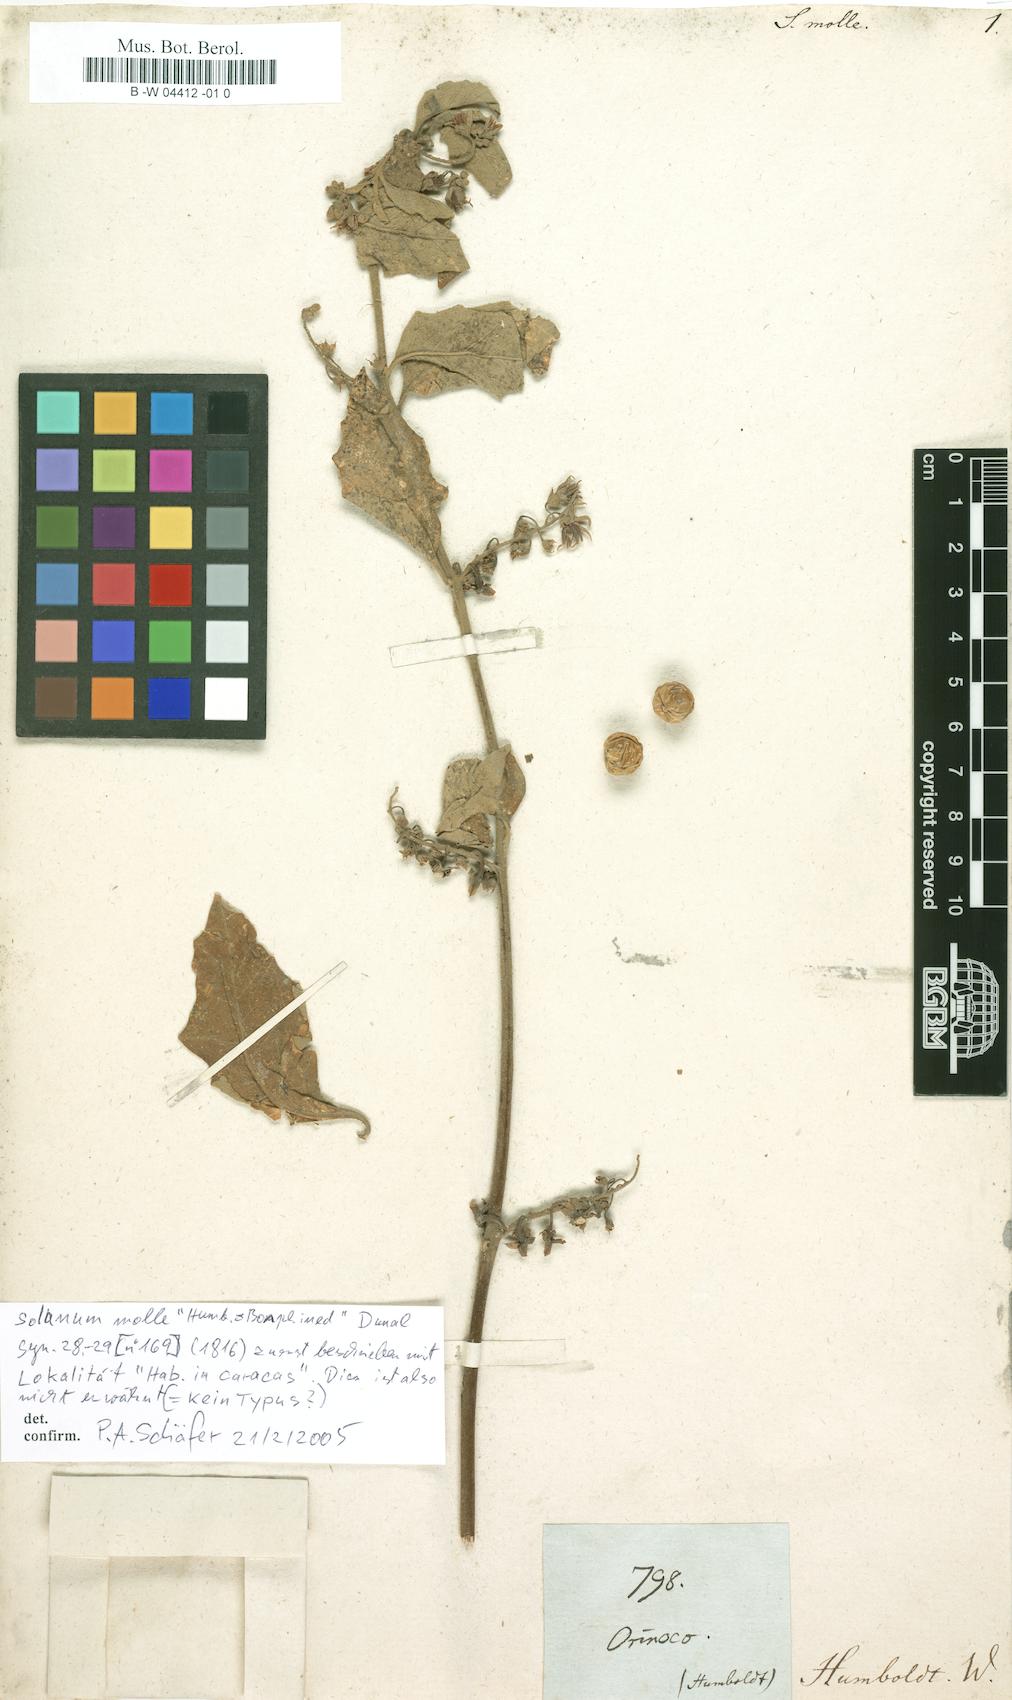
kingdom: Plantae
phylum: Tracheophyta
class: Magnoliopsida
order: Solanales
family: Solanaceae
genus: Solanum
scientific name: Solanum monachophyllum
